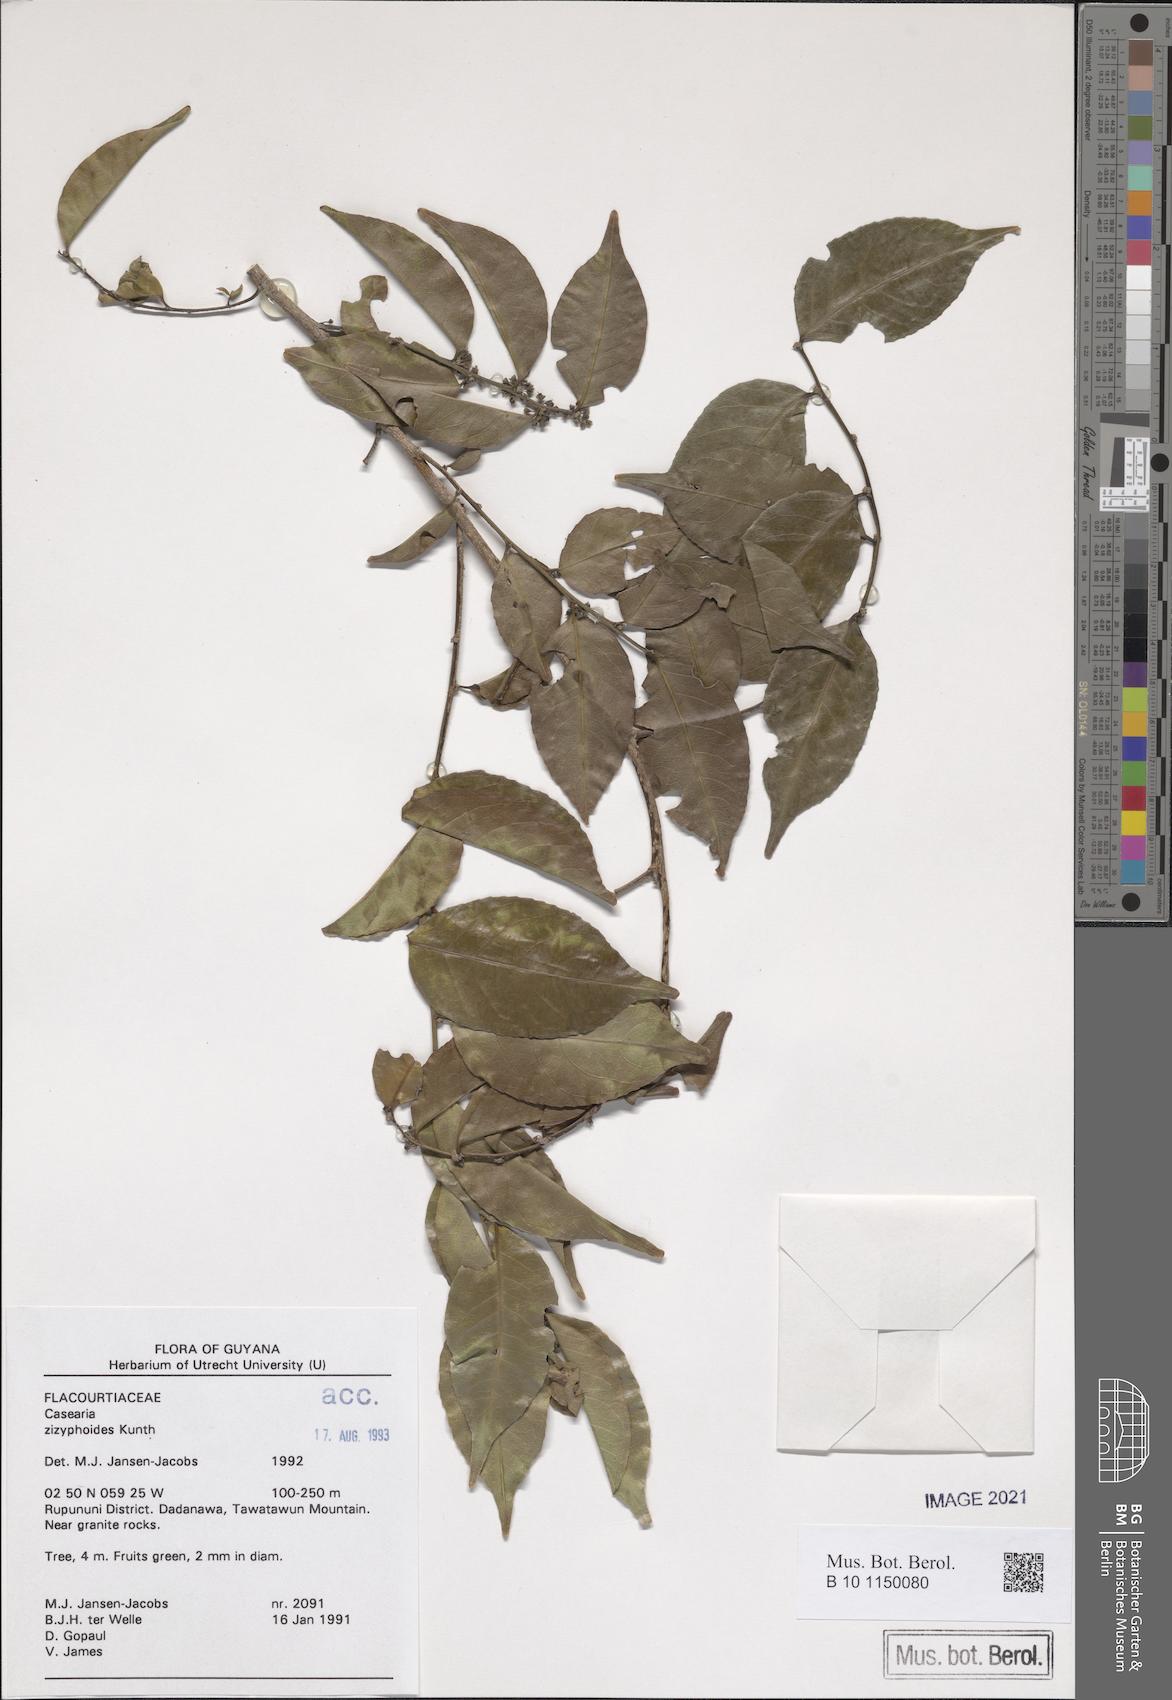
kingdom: Plantae
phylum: Tracheophyta
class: Magnoliopsida
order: Malpighiales
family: Salicaceae
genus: Casearia
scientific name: Casearia zizyphoides
